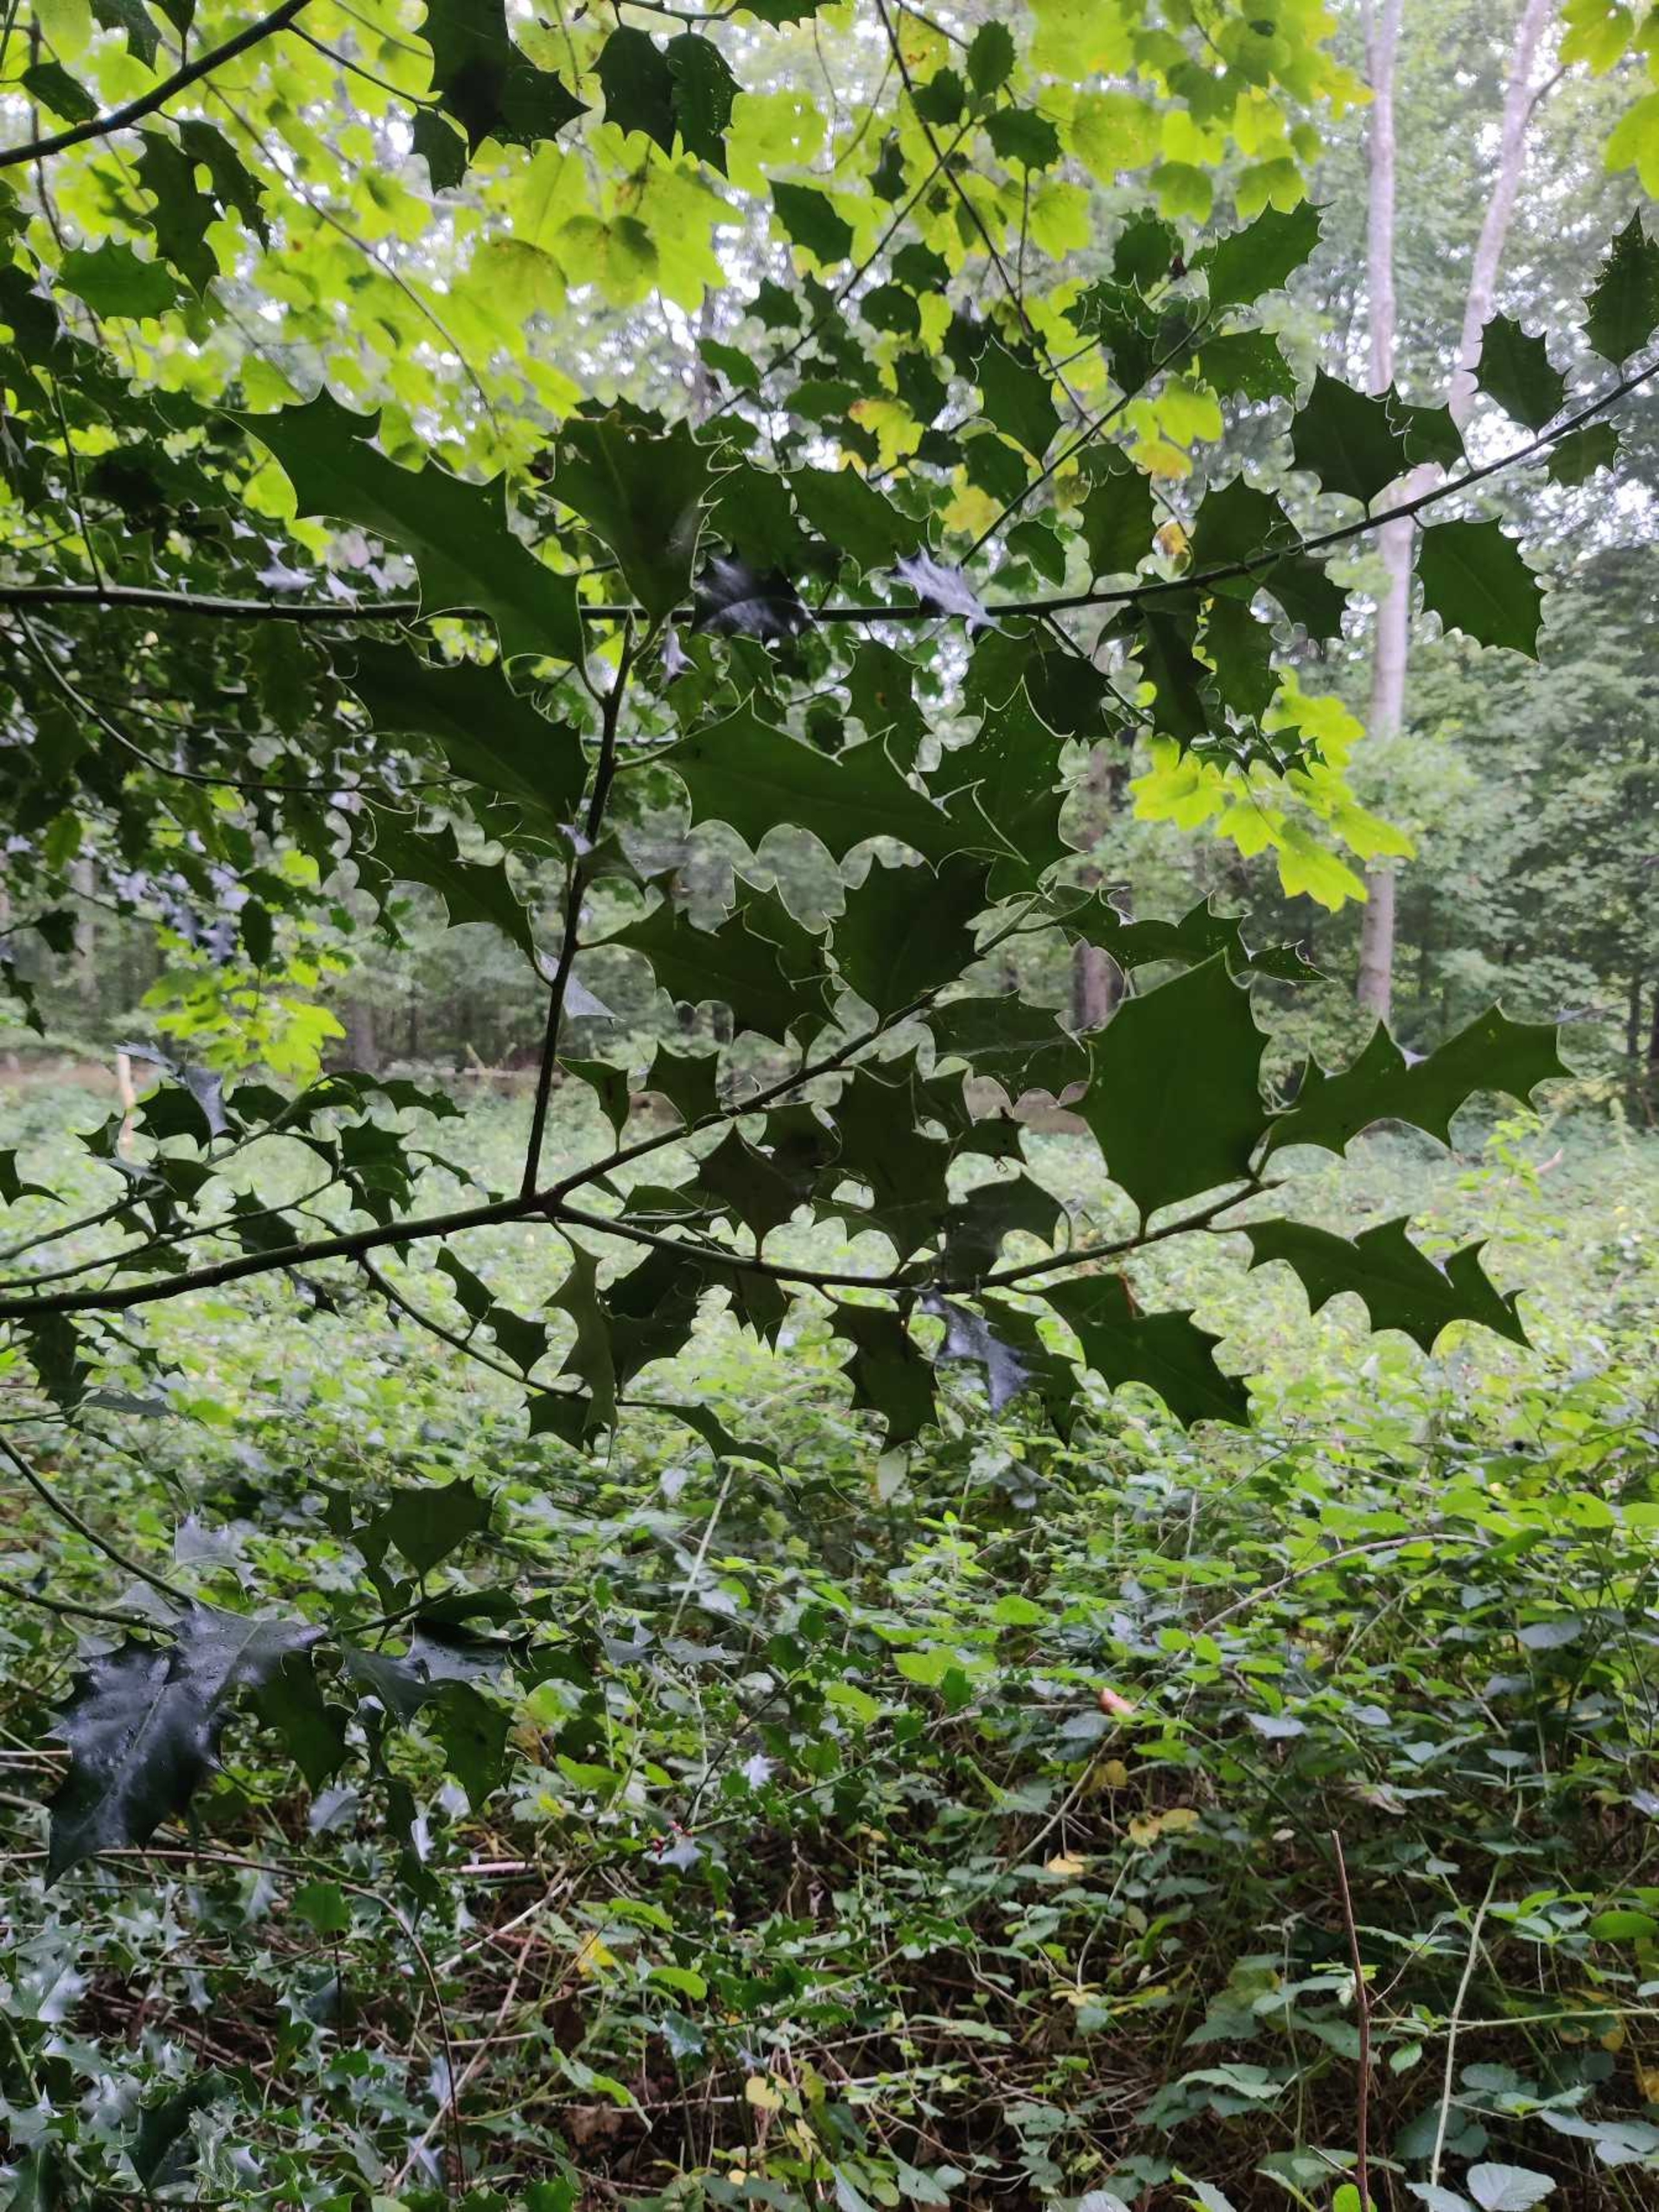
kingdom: Plantae
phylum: Tracheophyta
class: Magnoliopsida
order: Aquifoliales
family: Aquifoliaceae
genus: Ilex
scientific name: Ilex aquifolium
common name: Kristtorn
